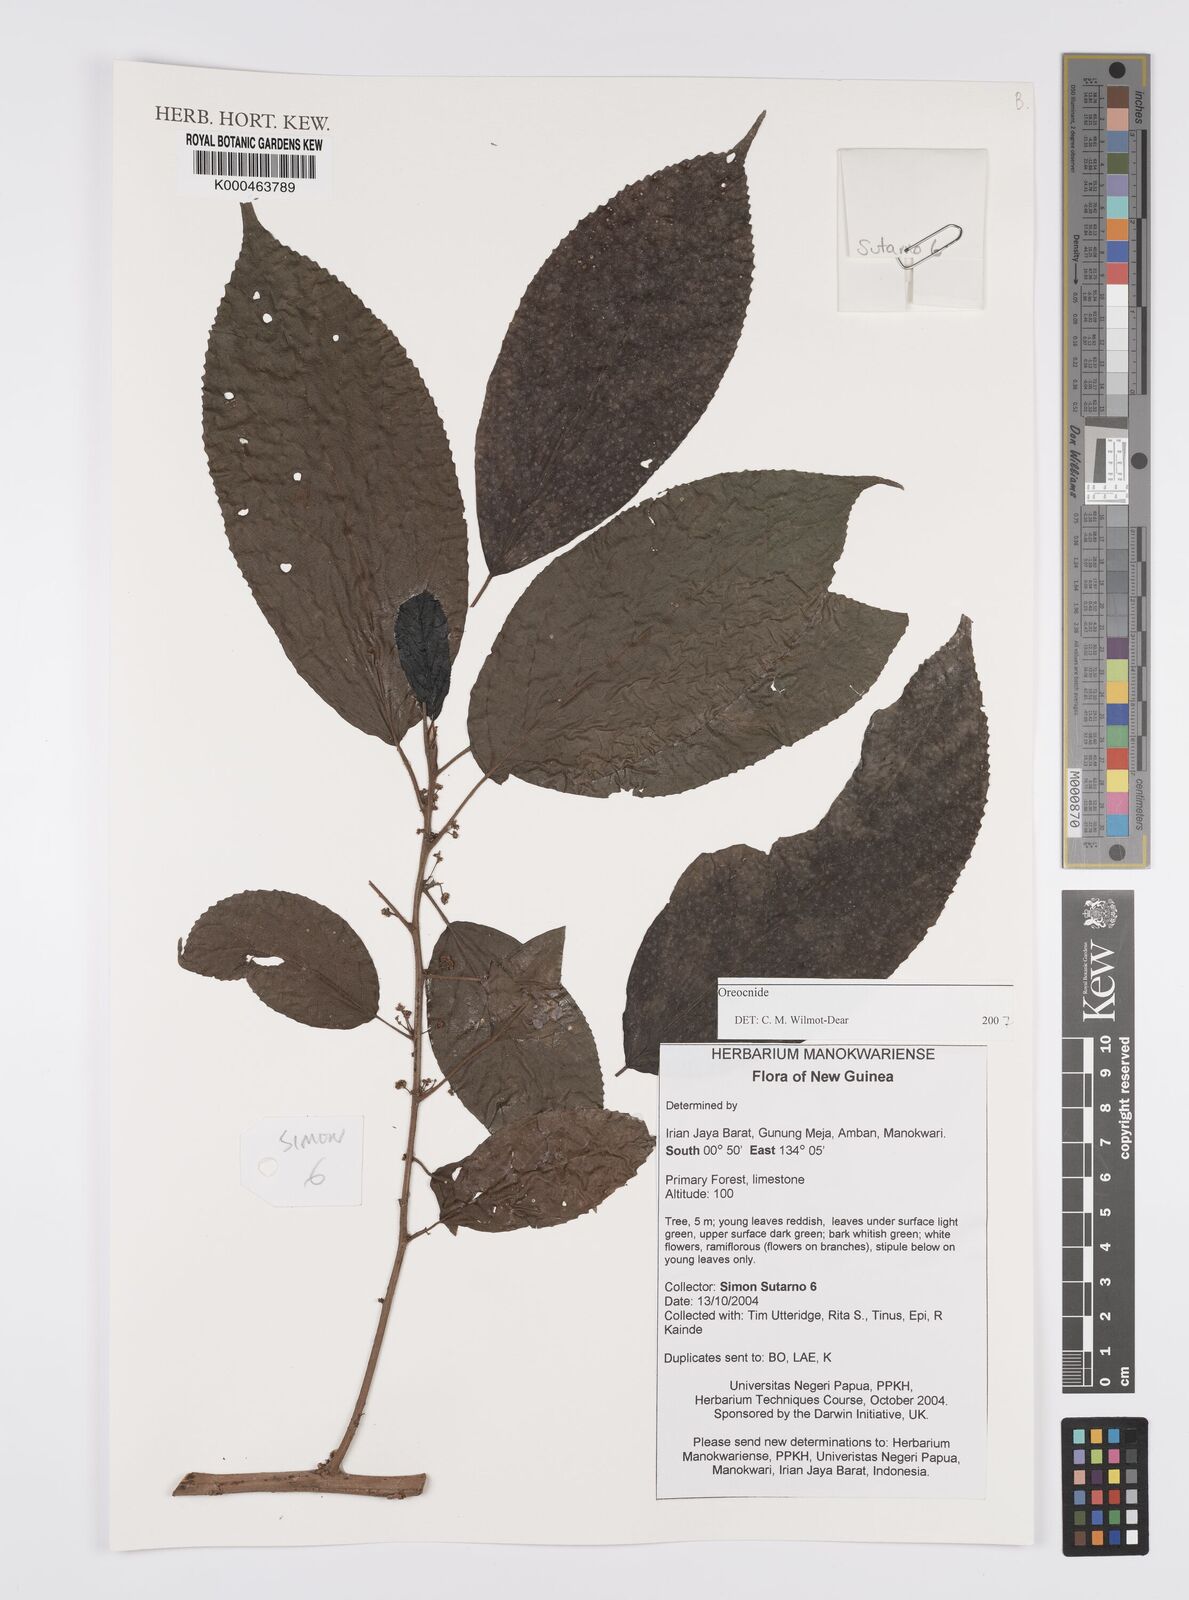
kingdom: Plantae
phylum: Tracheophyta
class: Magnoliopsida
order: Rosales
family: Urticaceae
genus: Oreocnide
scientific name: Oreocnide
